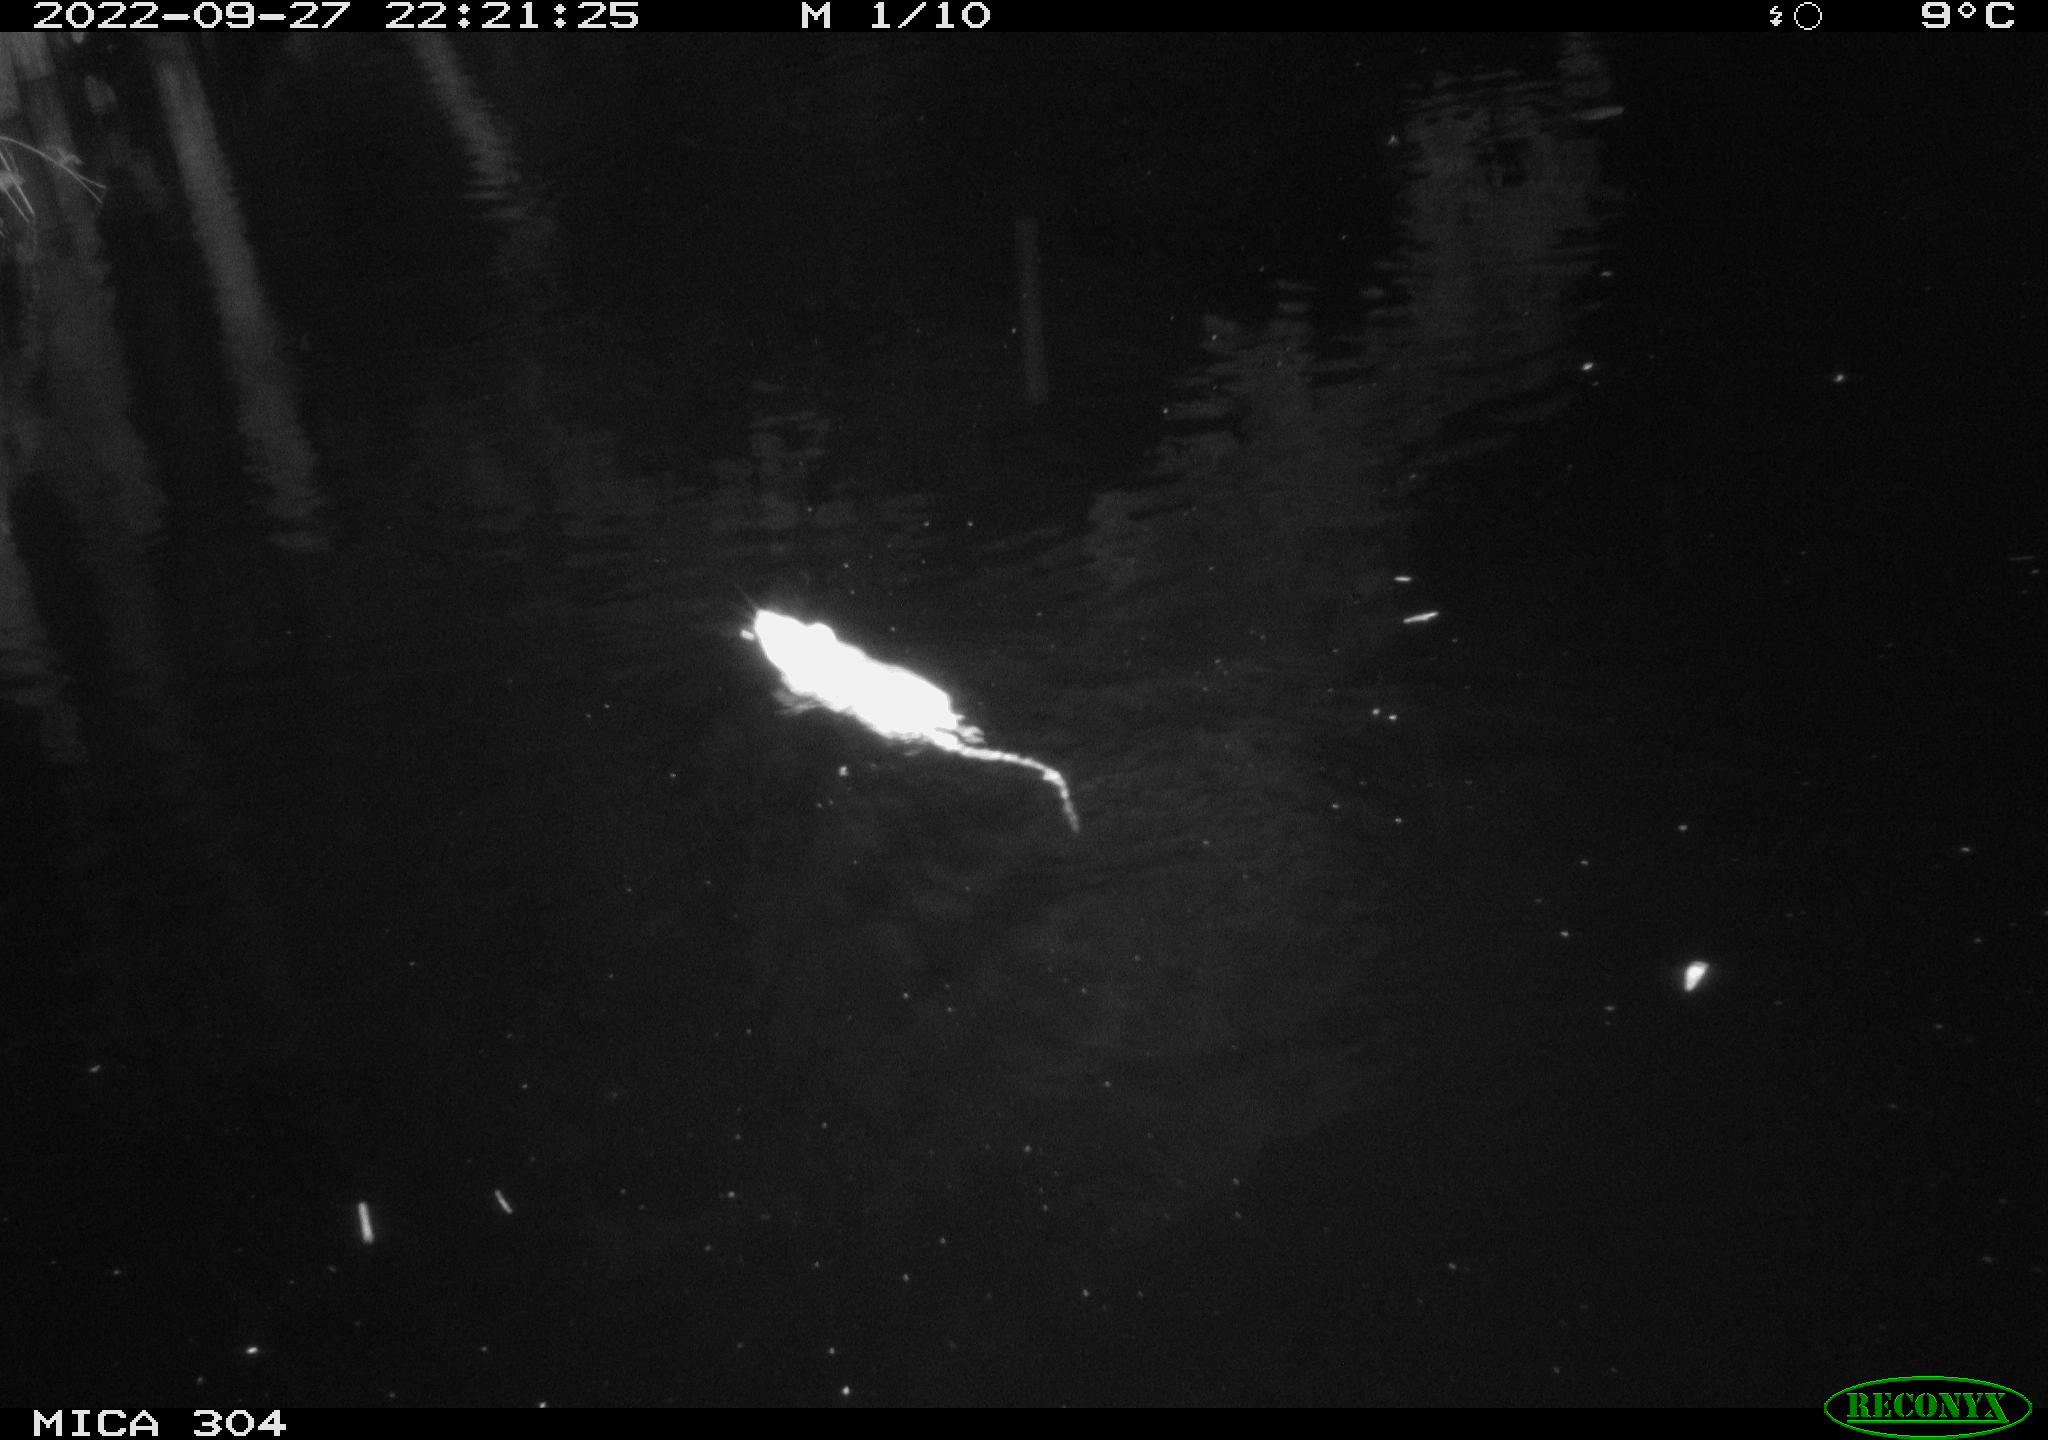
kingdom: Animalia
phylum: Chordata
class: Mammalia
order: Rodentia
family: Muridae
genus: Rattus
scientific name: Rattus norvegicus
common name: Brown rat
